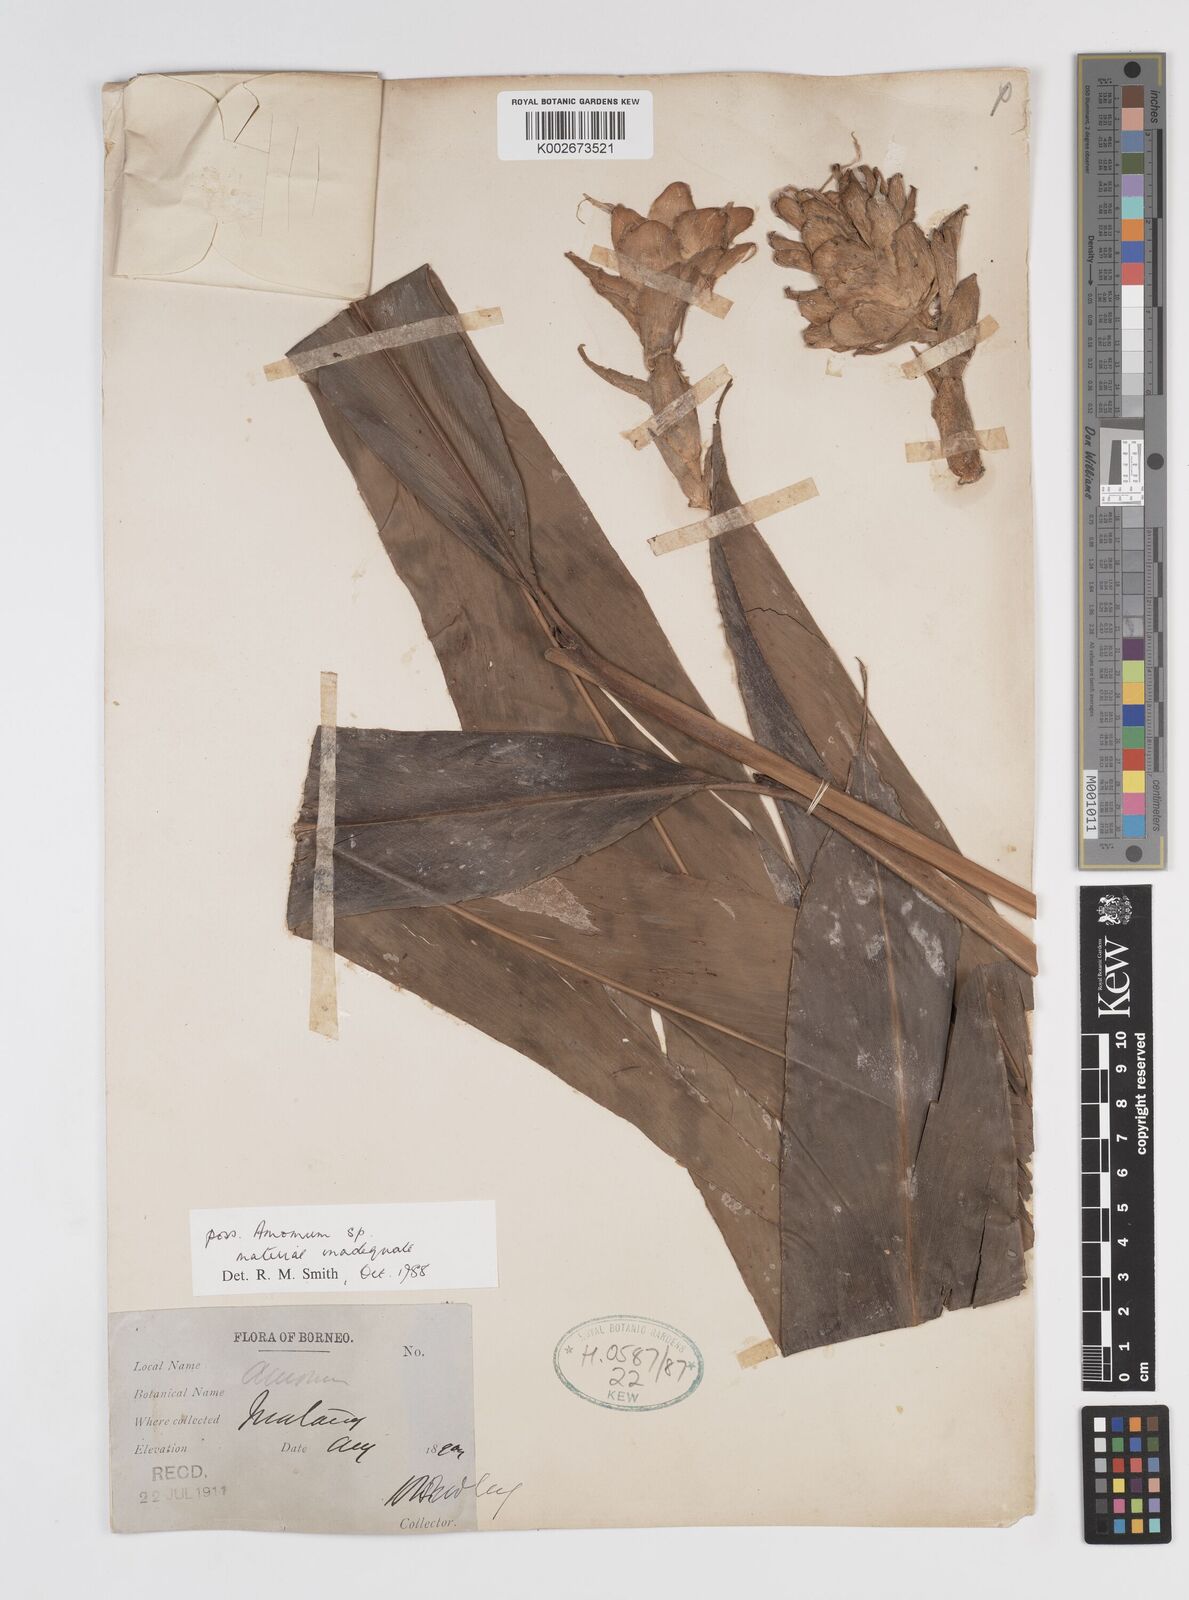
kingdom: Plantae
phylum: Tracheophyta
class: Liliopsida
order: Zingiberales
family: Zingiberaceae
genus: Amomum
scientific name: Amomum
